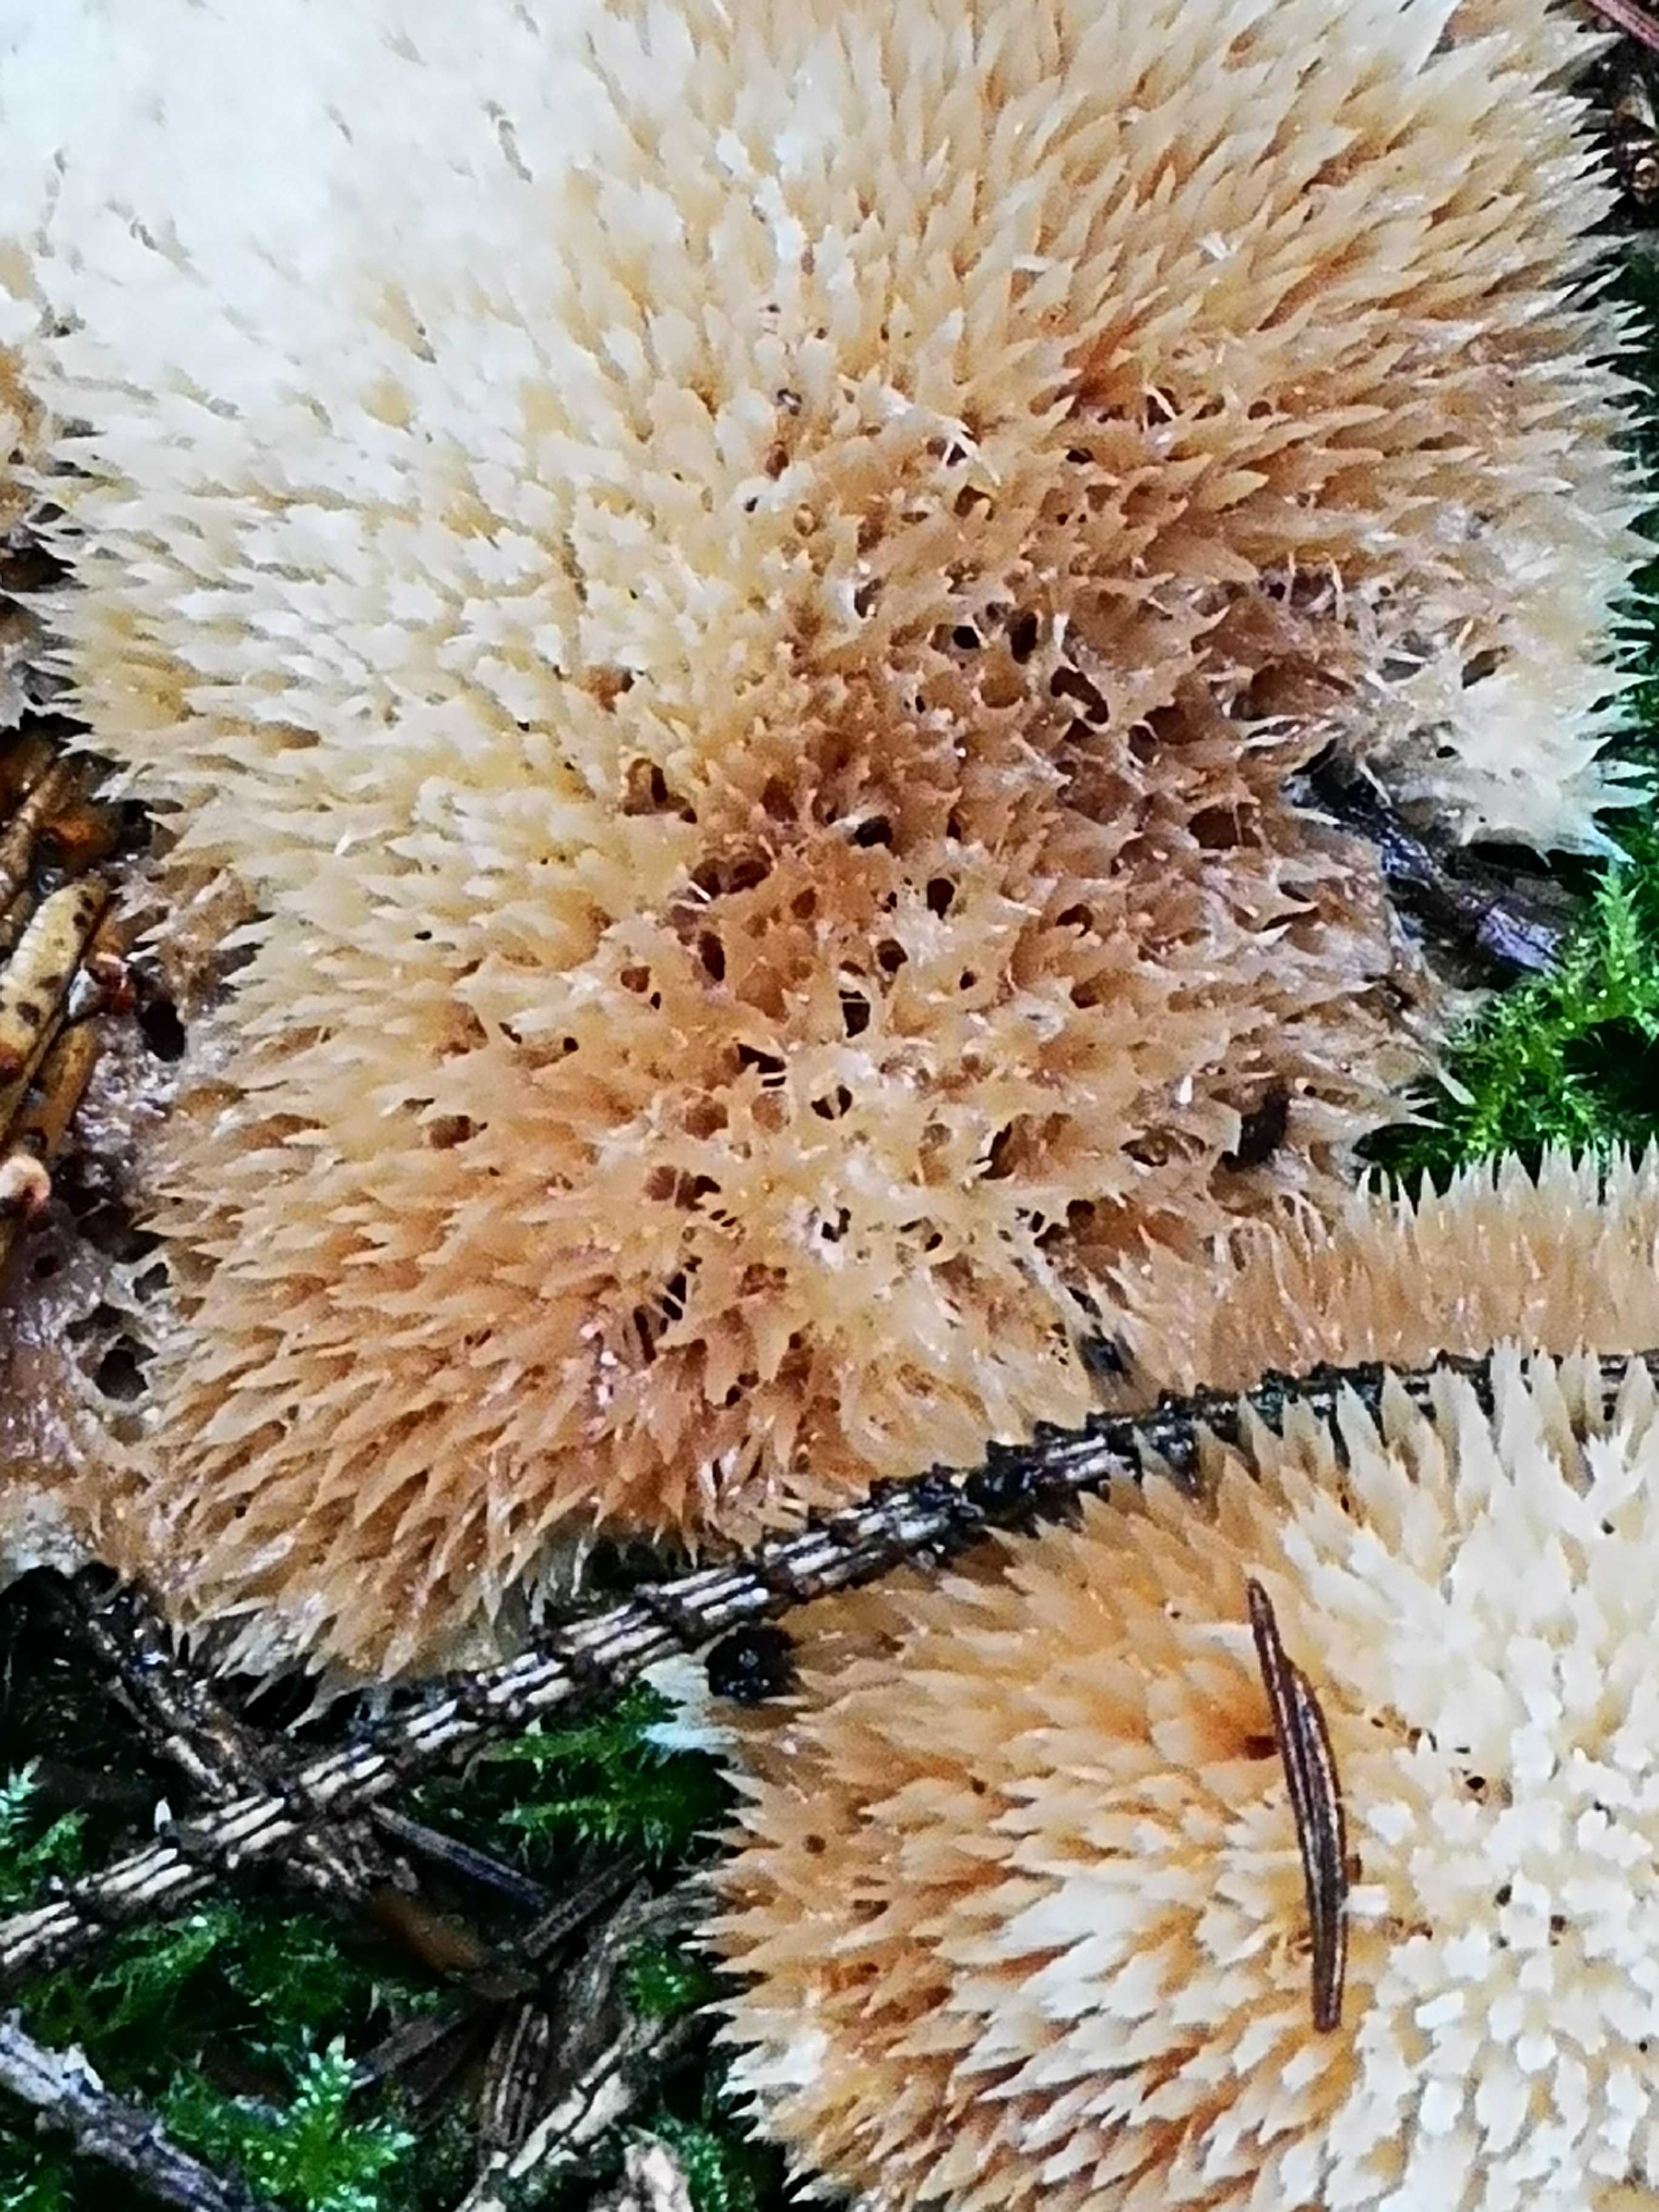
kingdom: Fungi
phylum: Basidiomycota
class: Agaricomycetes
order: Polyporales
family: Dacryobolaceae
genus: Postia
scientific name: Postia ptychogaster
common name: støvende kødporesvamp
